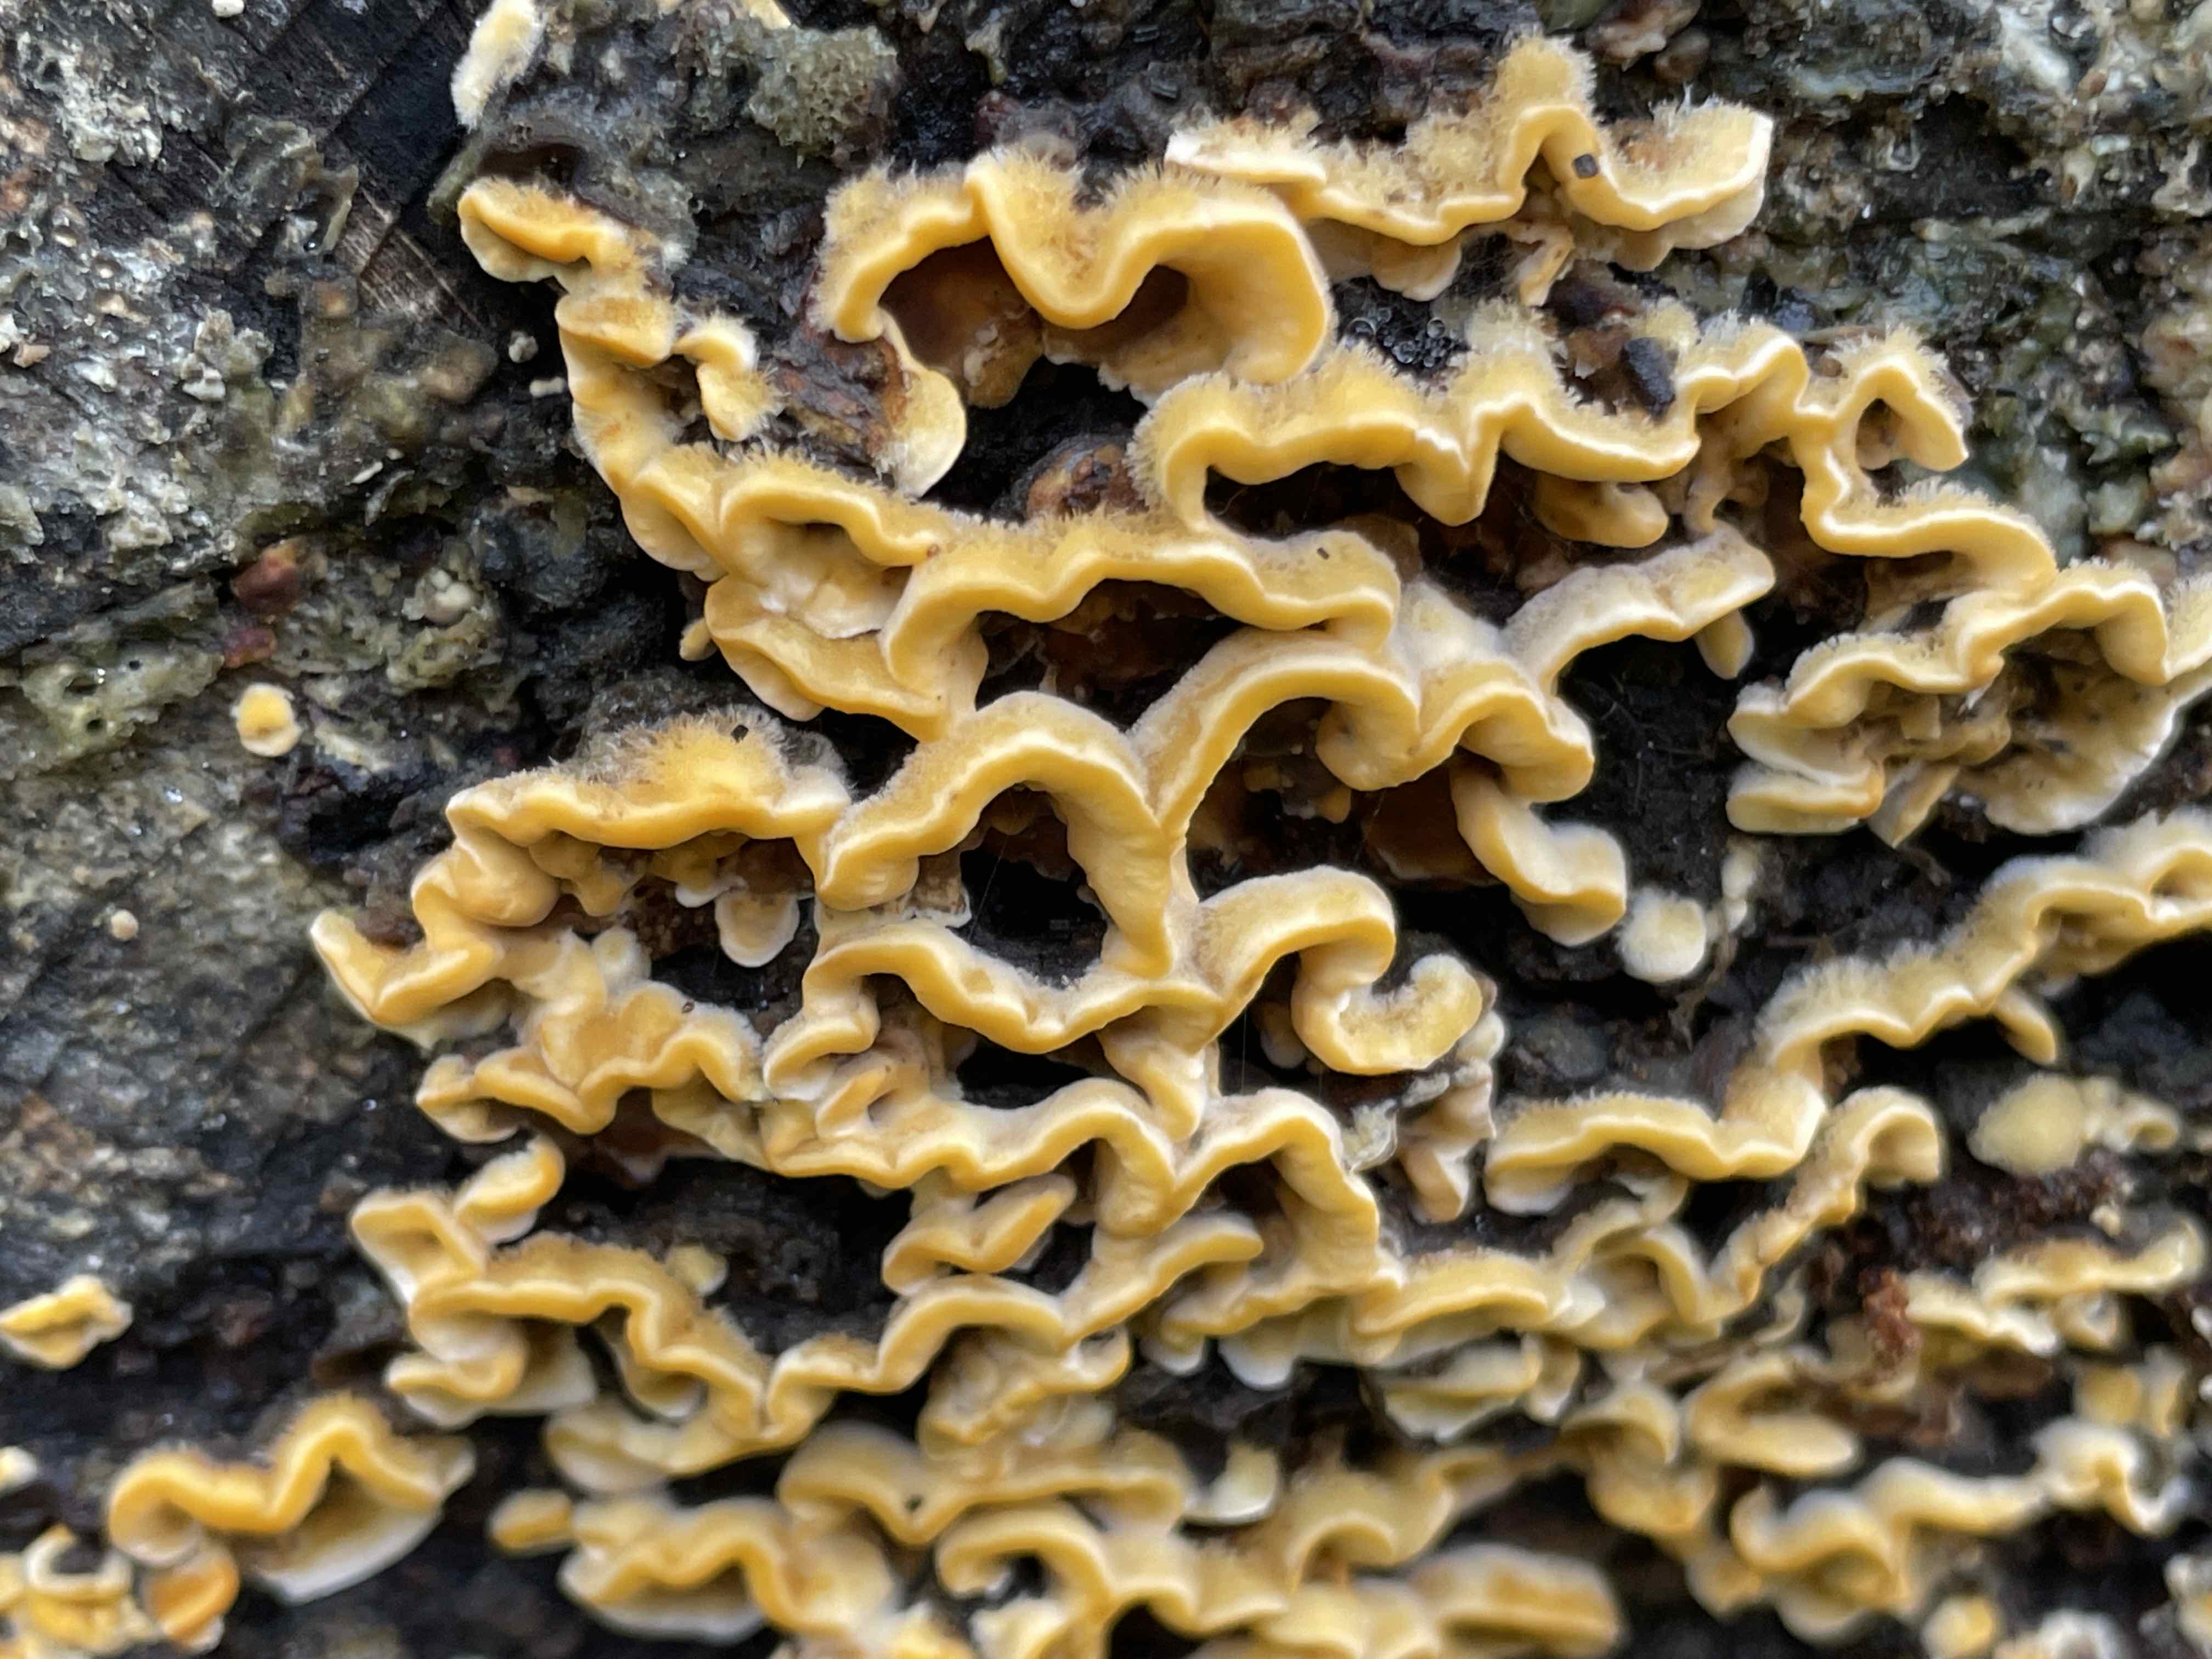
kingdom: Fungi
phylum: Basidiomycota
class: Agaricomycetes
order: Russulales
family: Stereaceae
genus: Stereum
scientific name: Stereum hirsutum
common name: håret lædersvamp
